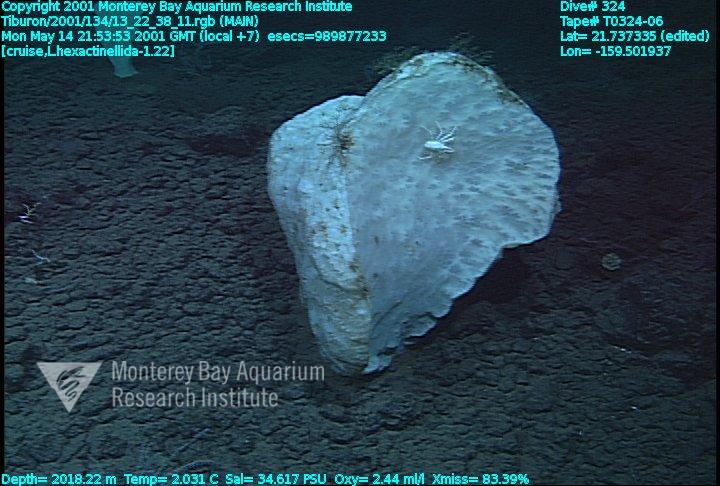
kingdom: Animalia
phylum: Porifera
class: Hexactinellida
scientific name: Hexactinellida
